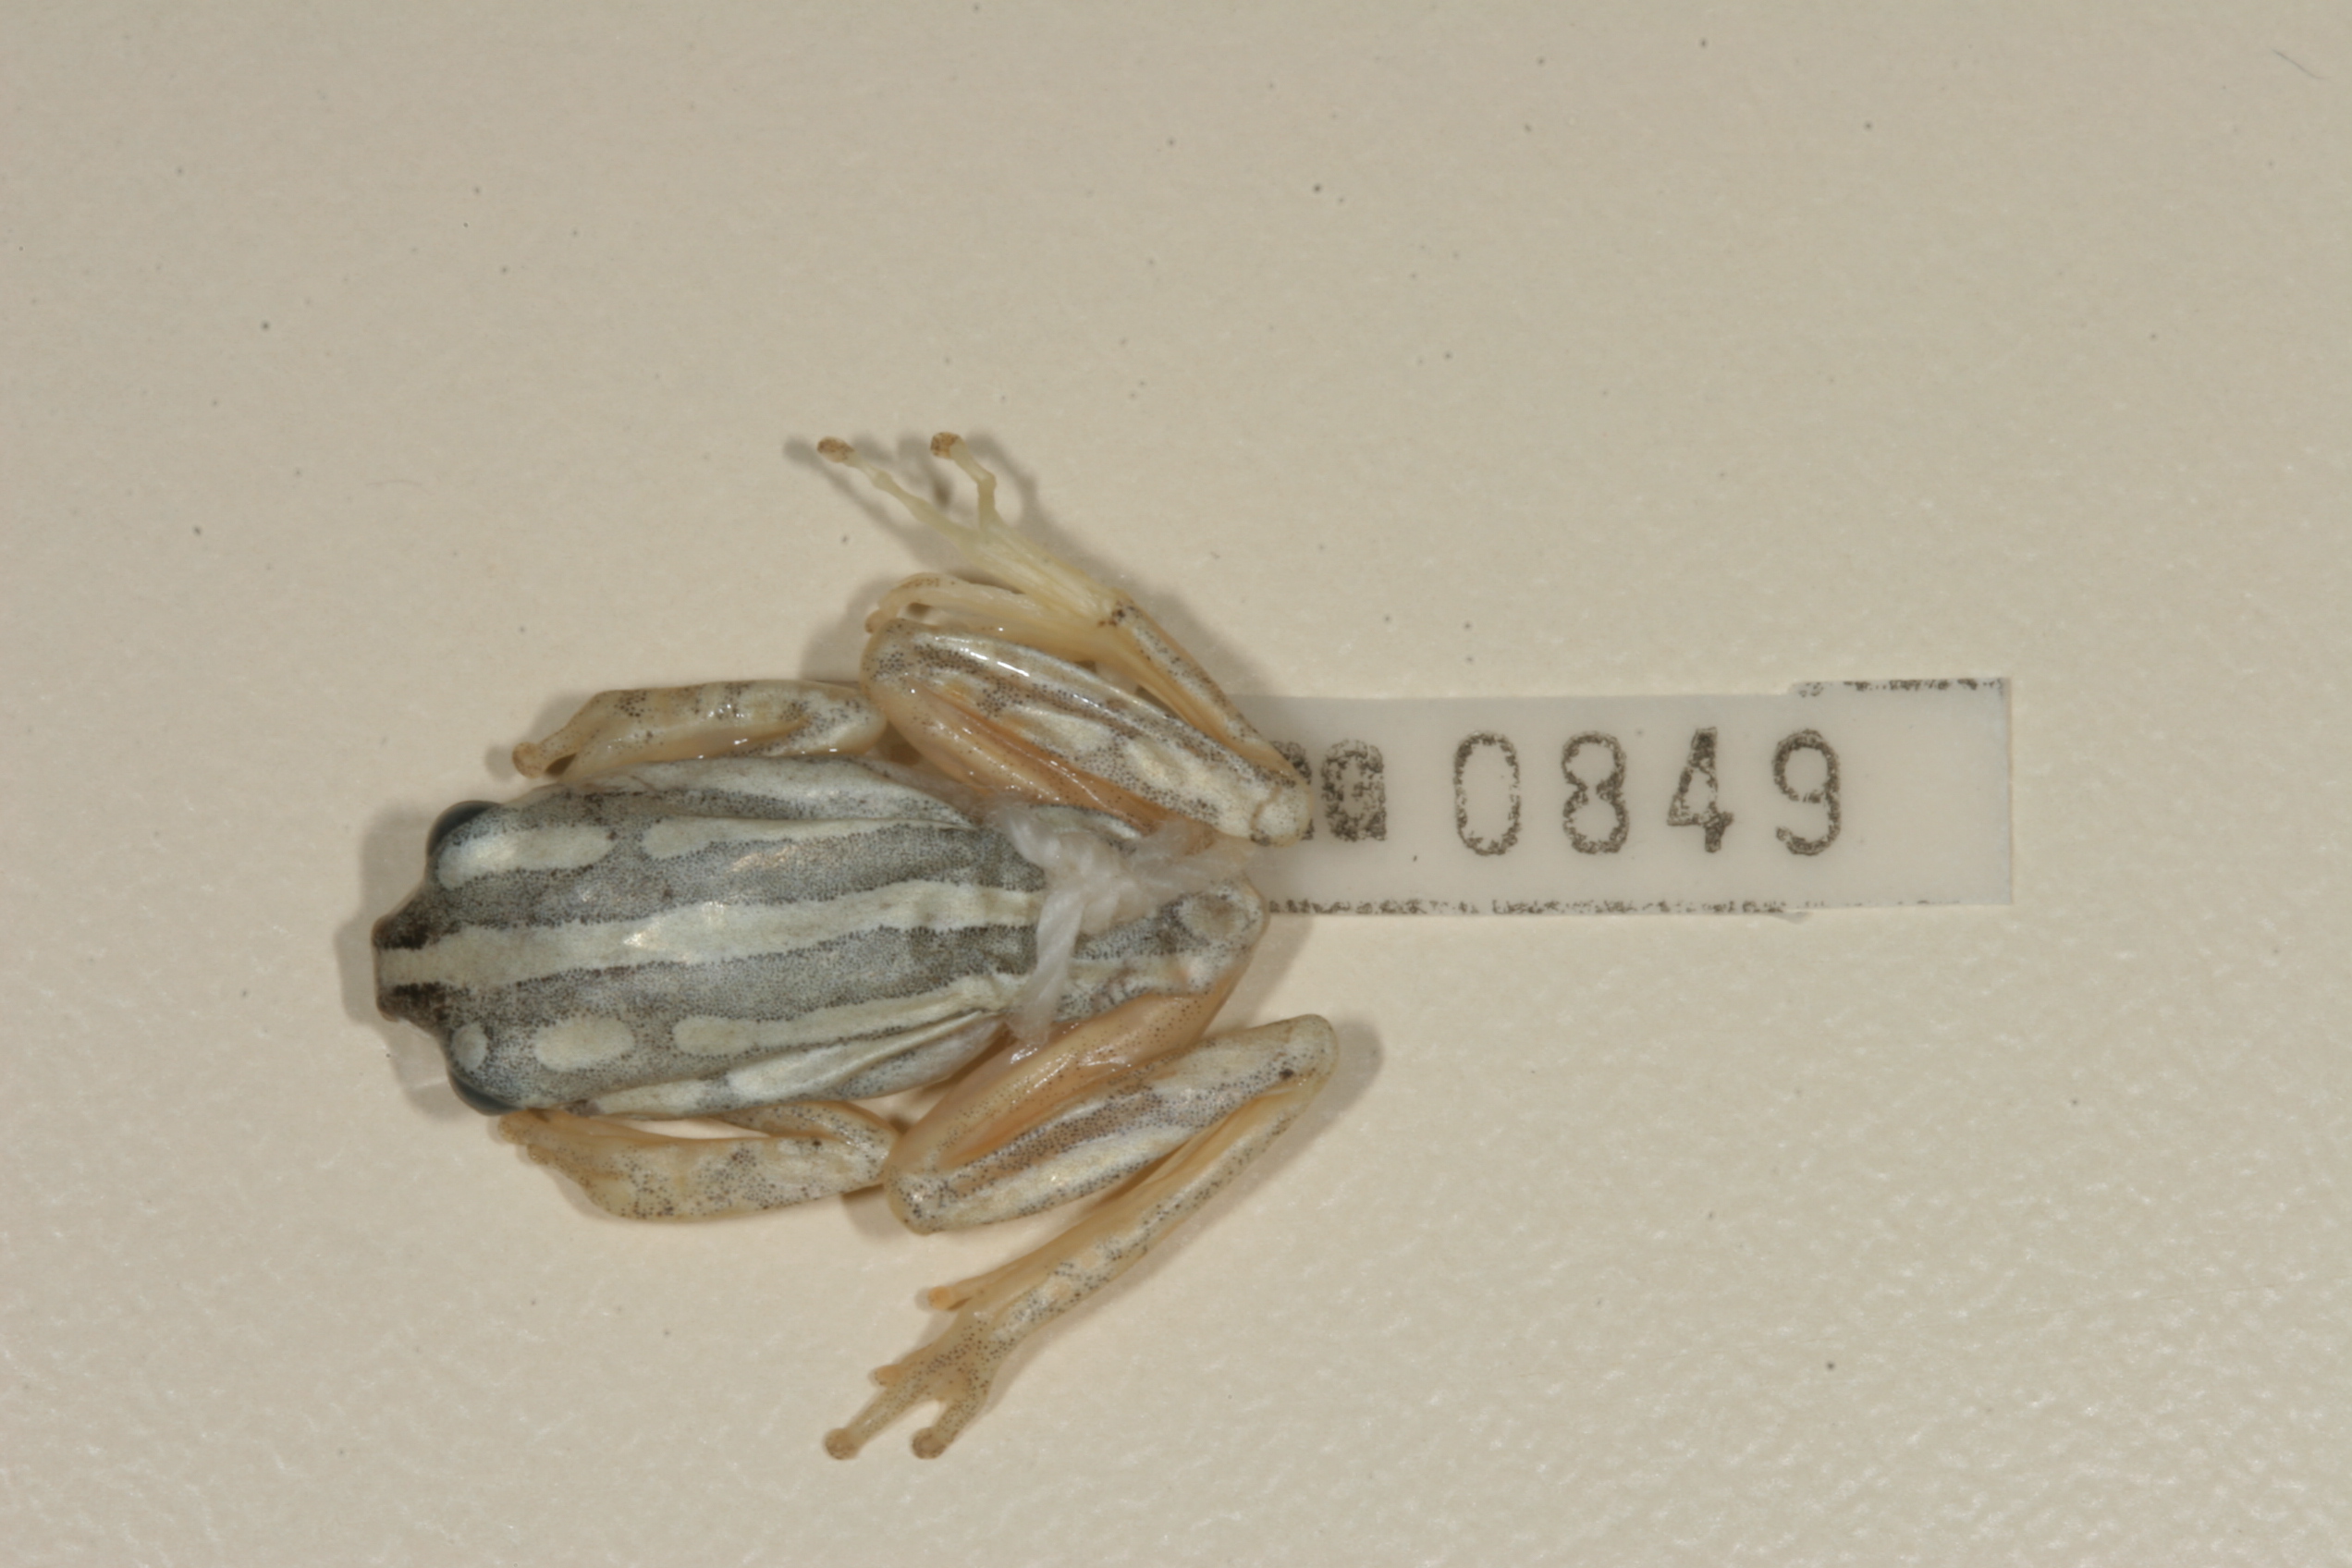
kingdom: Animalia
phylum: Chordata
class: Amphibia
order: Anura
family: Hyperoliidae
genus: Hyperolius
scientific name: Hyperolius marmoratus
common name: Painted reed frog
